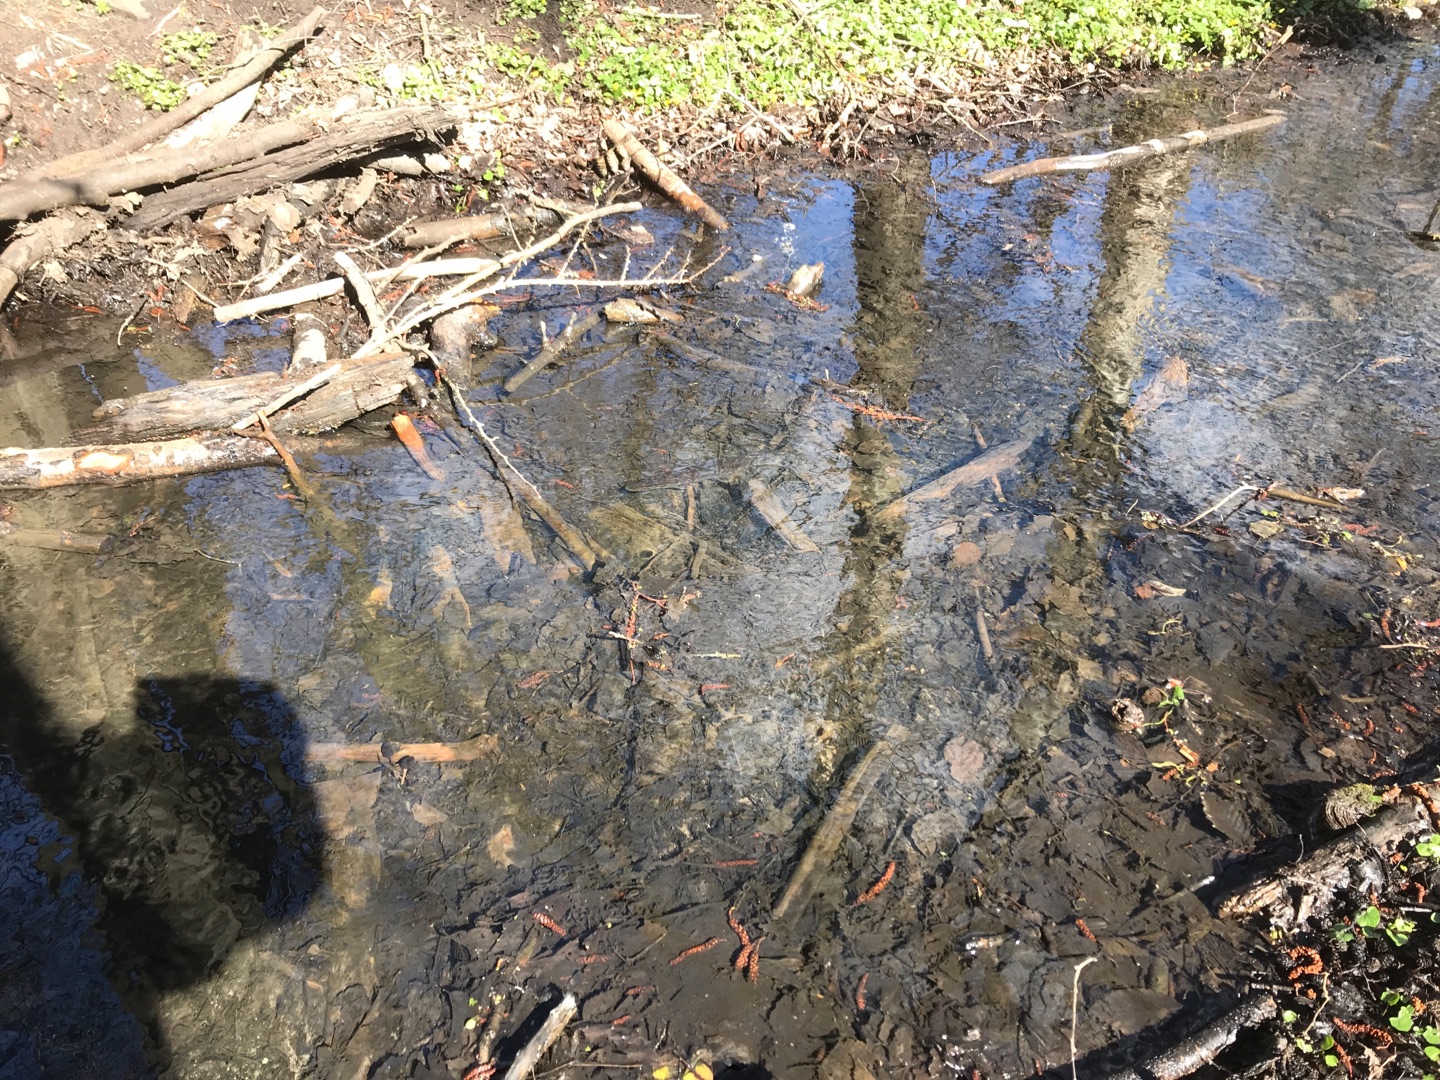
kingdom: Animalia
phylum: Chordata
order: Esociformes
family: Esocidae
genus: Esox
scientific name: Esox lucius
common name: Gedde
